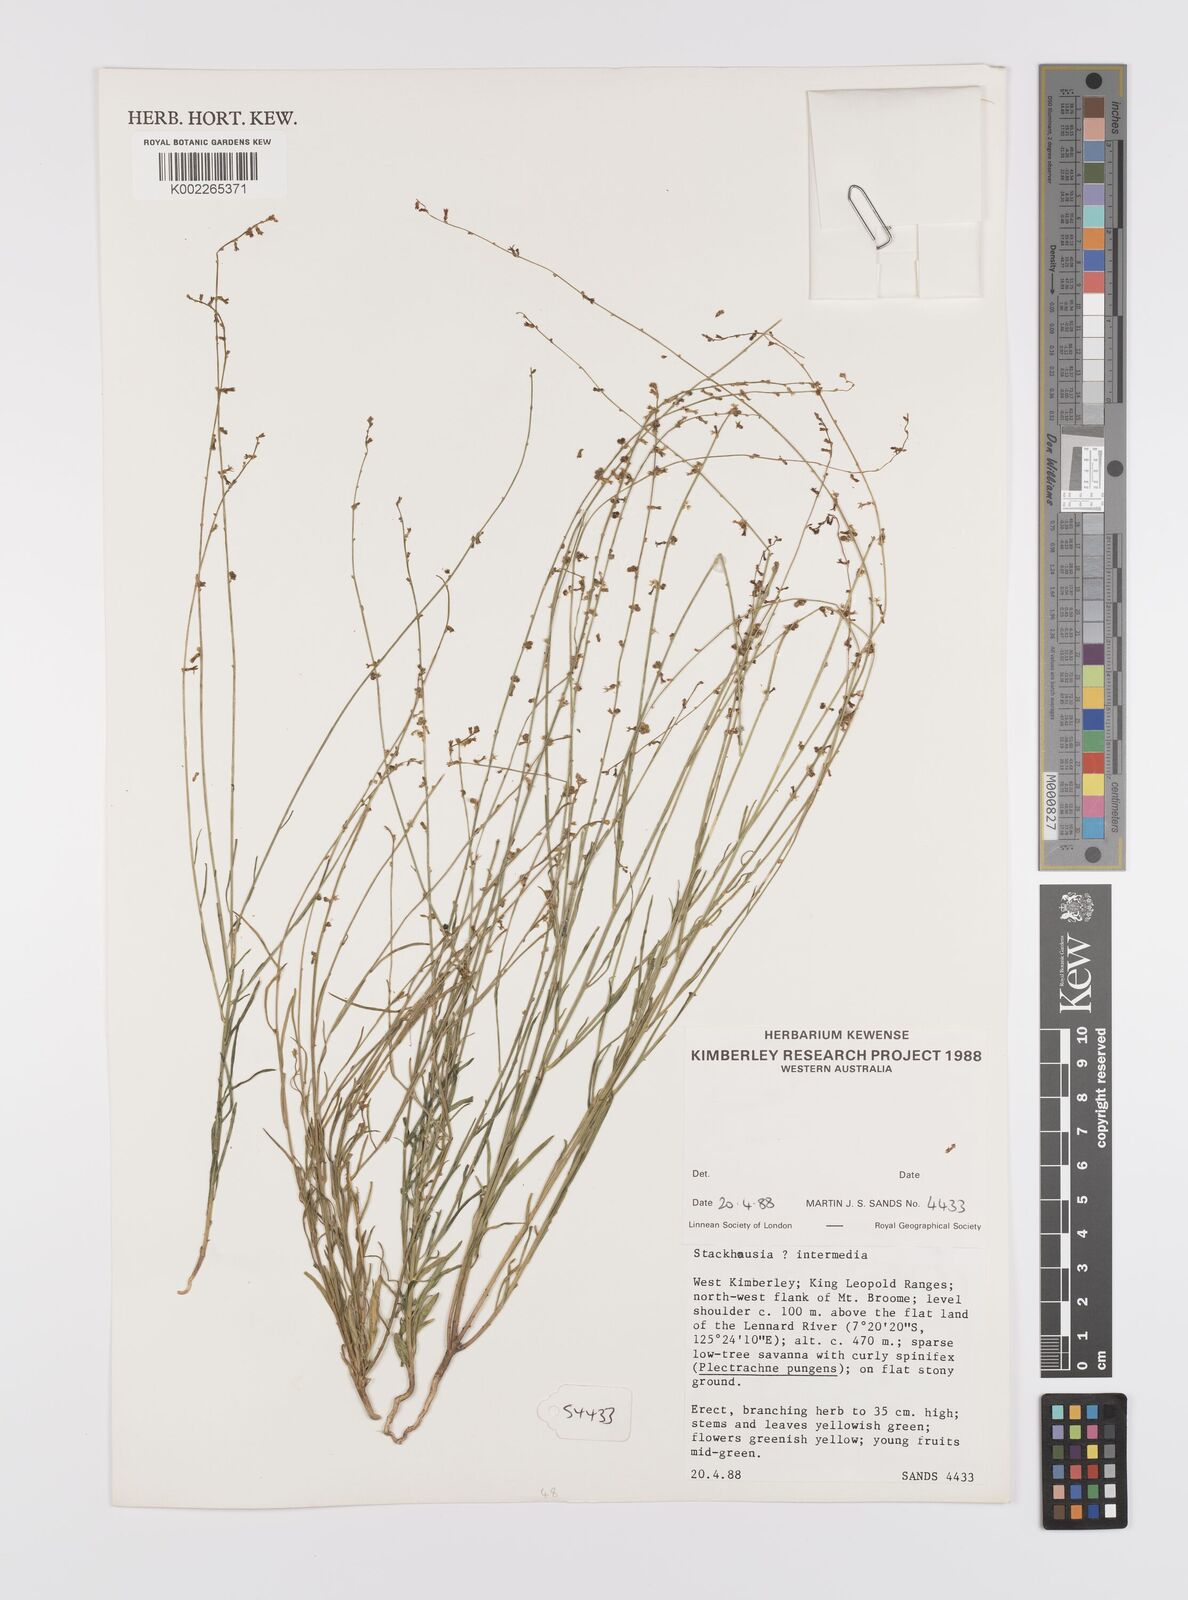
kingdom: Plantae
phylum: Tracheophyta
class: Magnoliopsida
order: Celastrales
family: Celastraceae
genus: Stackhousia
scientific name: Stackhousia intermedia
